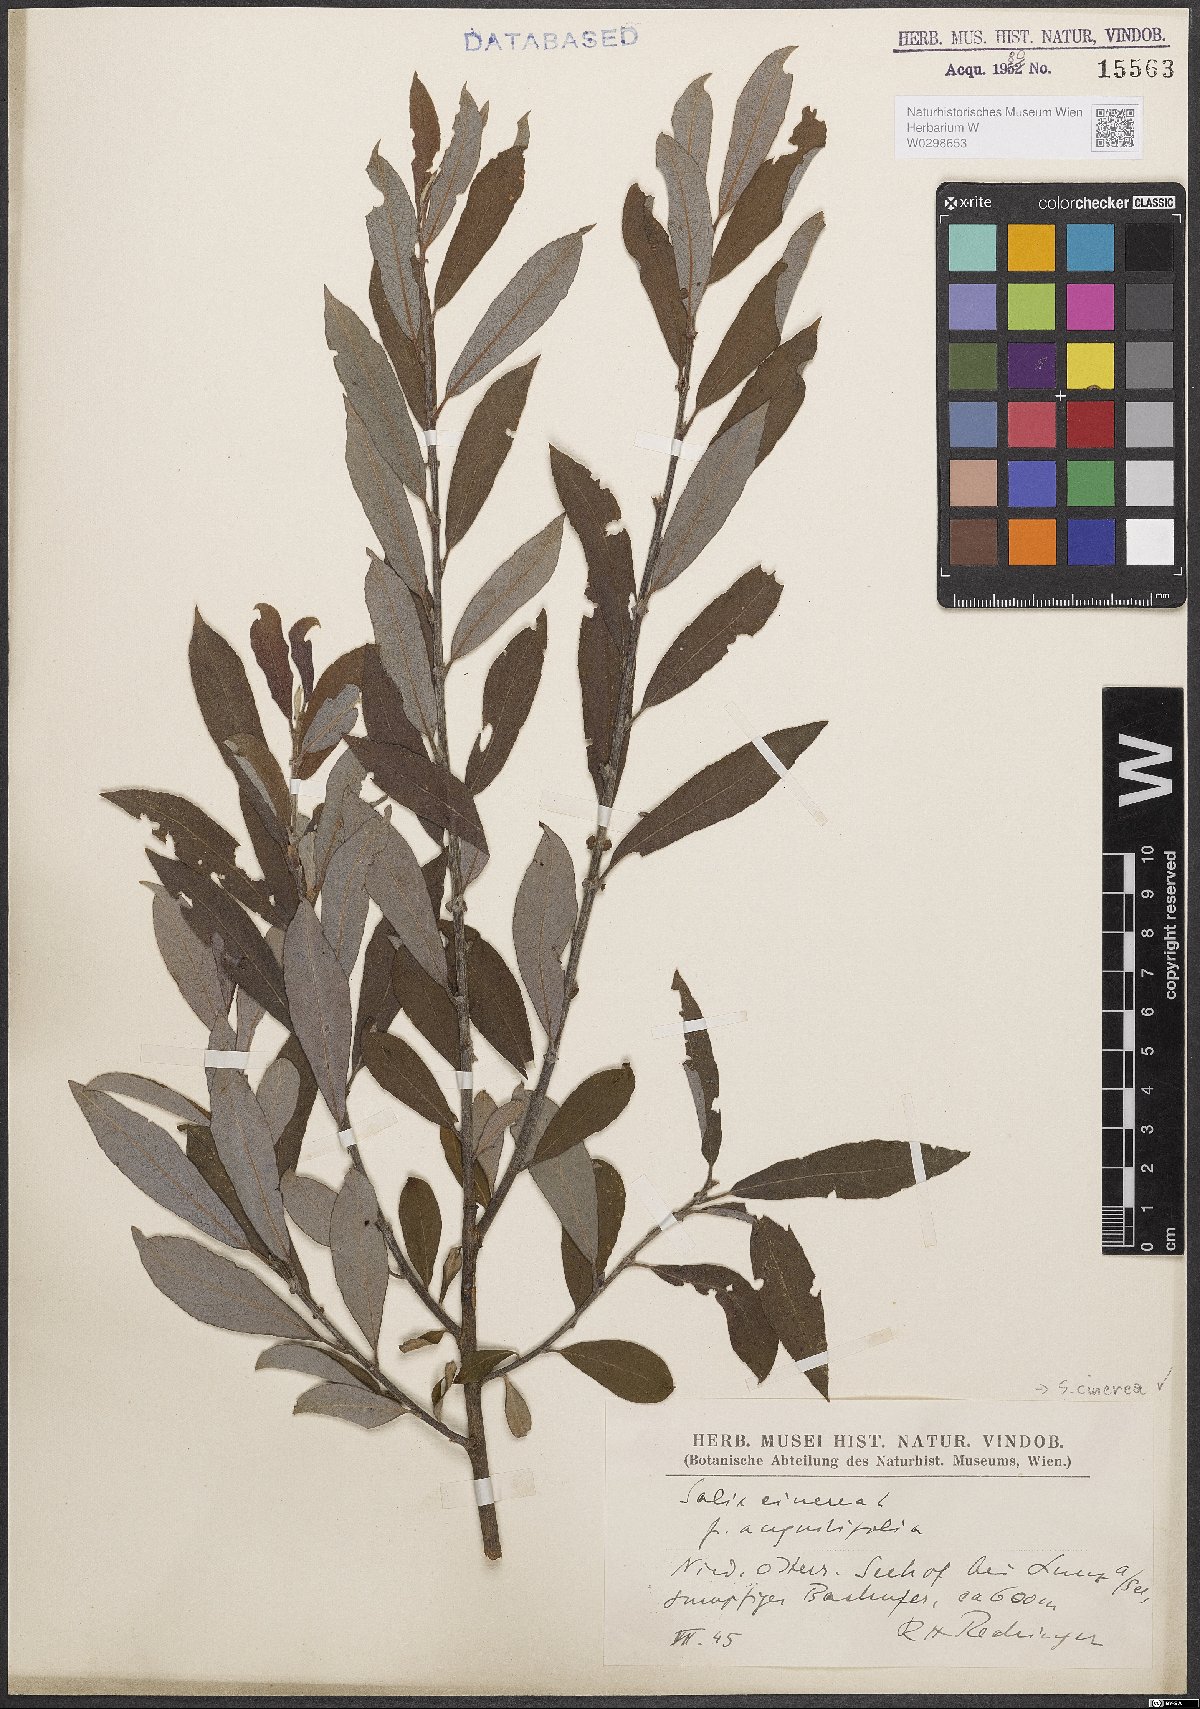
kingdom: Plantae
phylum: Tracheophyta
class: Magnoliopsida
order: Malpighiales
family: Salicaceae
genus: Salix
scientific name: Salix cinerea
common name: Common sallow
